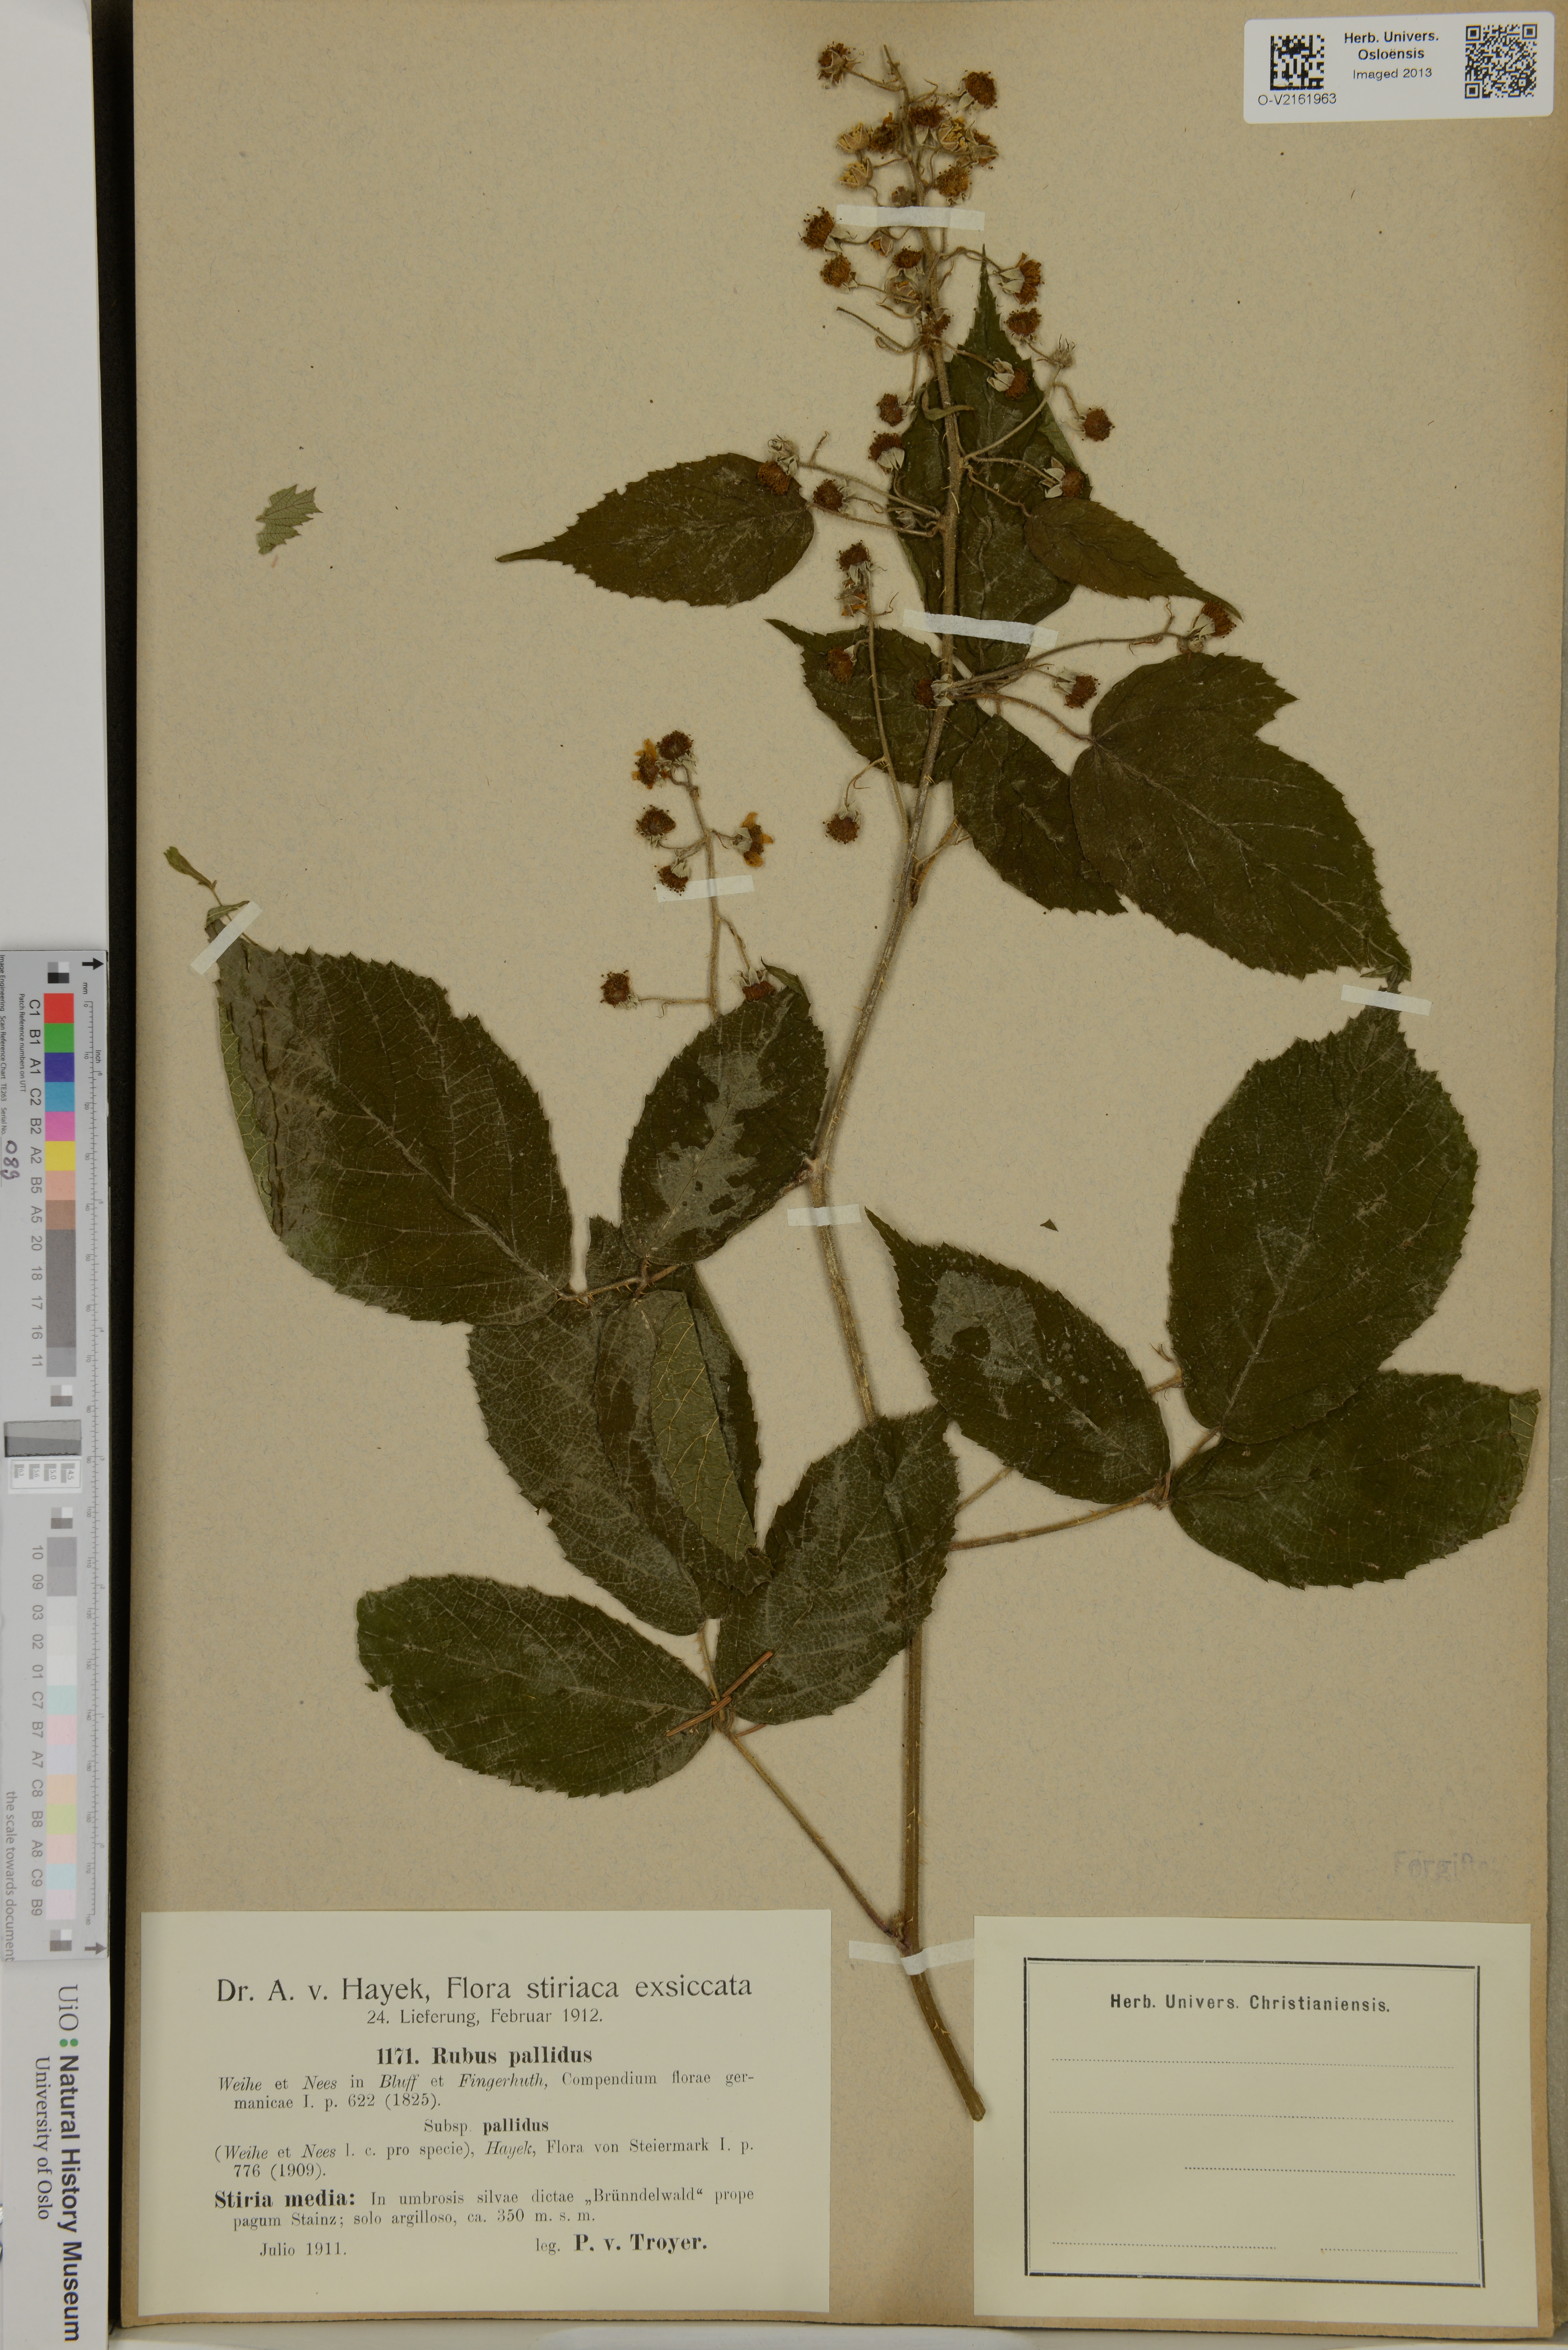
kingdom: Plantae
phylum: Tracheophyta
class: Magnoliopsida
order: Rosales
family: Rosaceae
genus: Rubus
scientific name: Rubus pallidus
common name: Pale bramble
